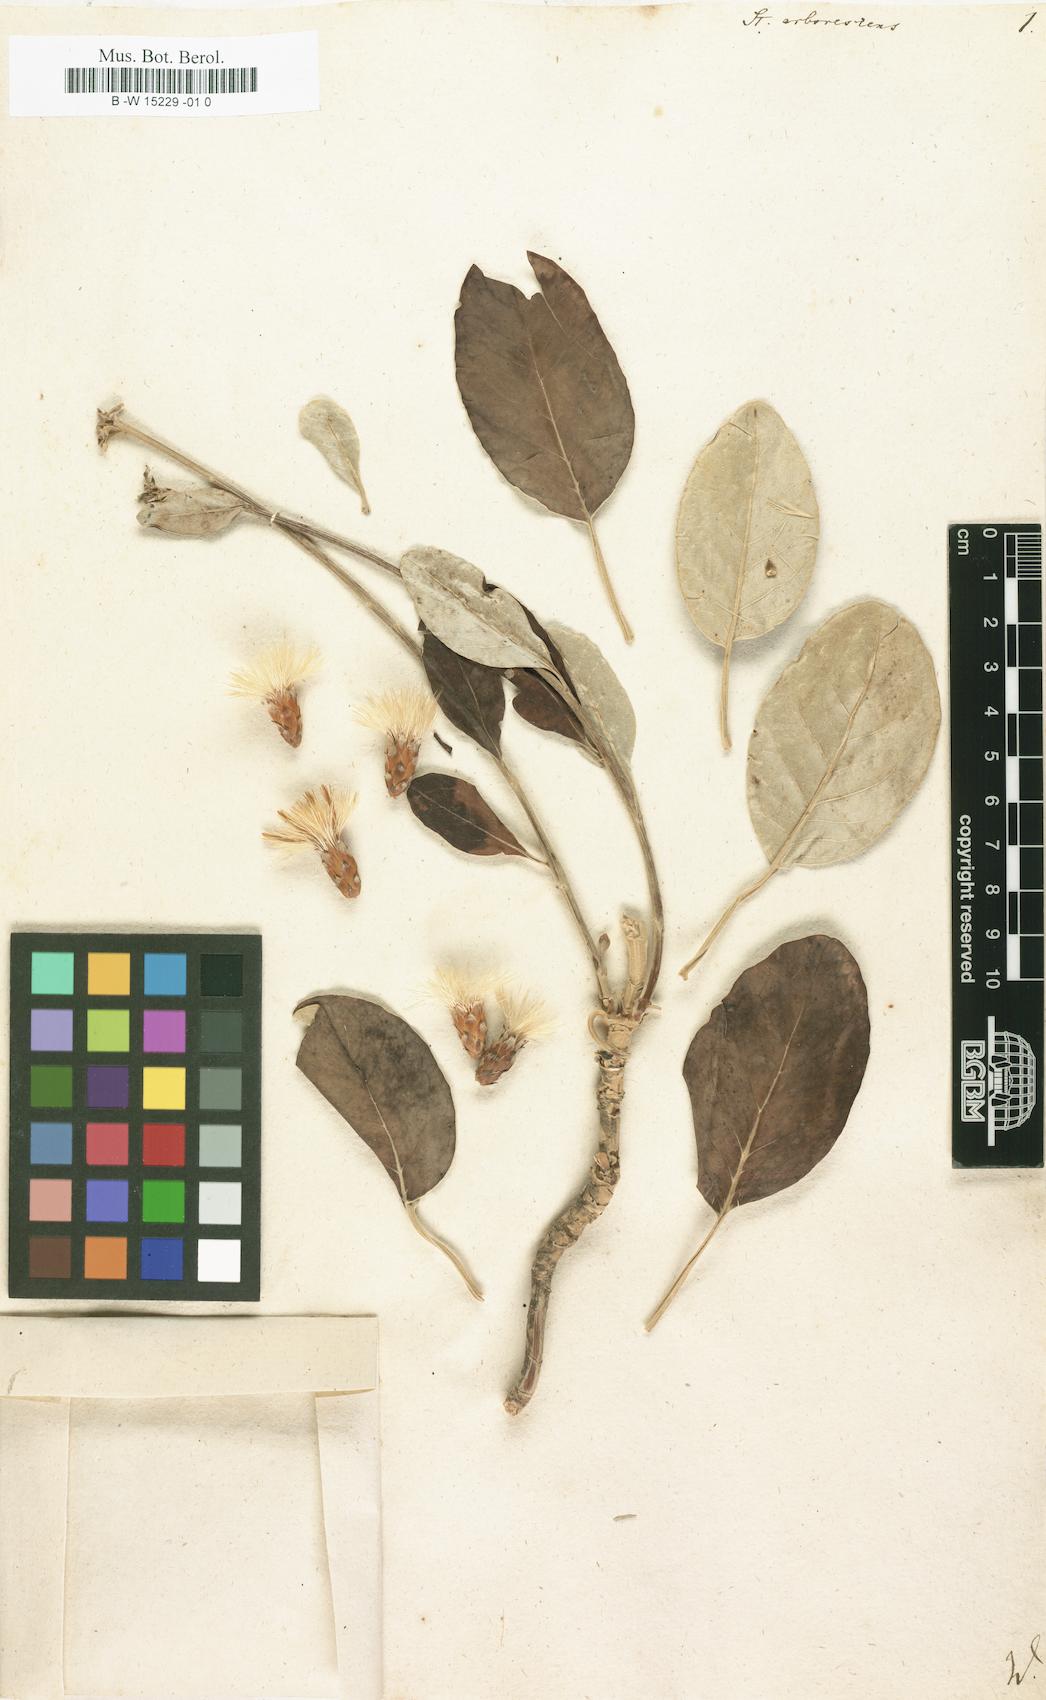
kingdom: Plantae
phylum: Tracheophyta
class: Magnoliopsida
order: Asterales
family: Asteraceae
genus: Staehelina
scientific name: Staehelina petiolata
